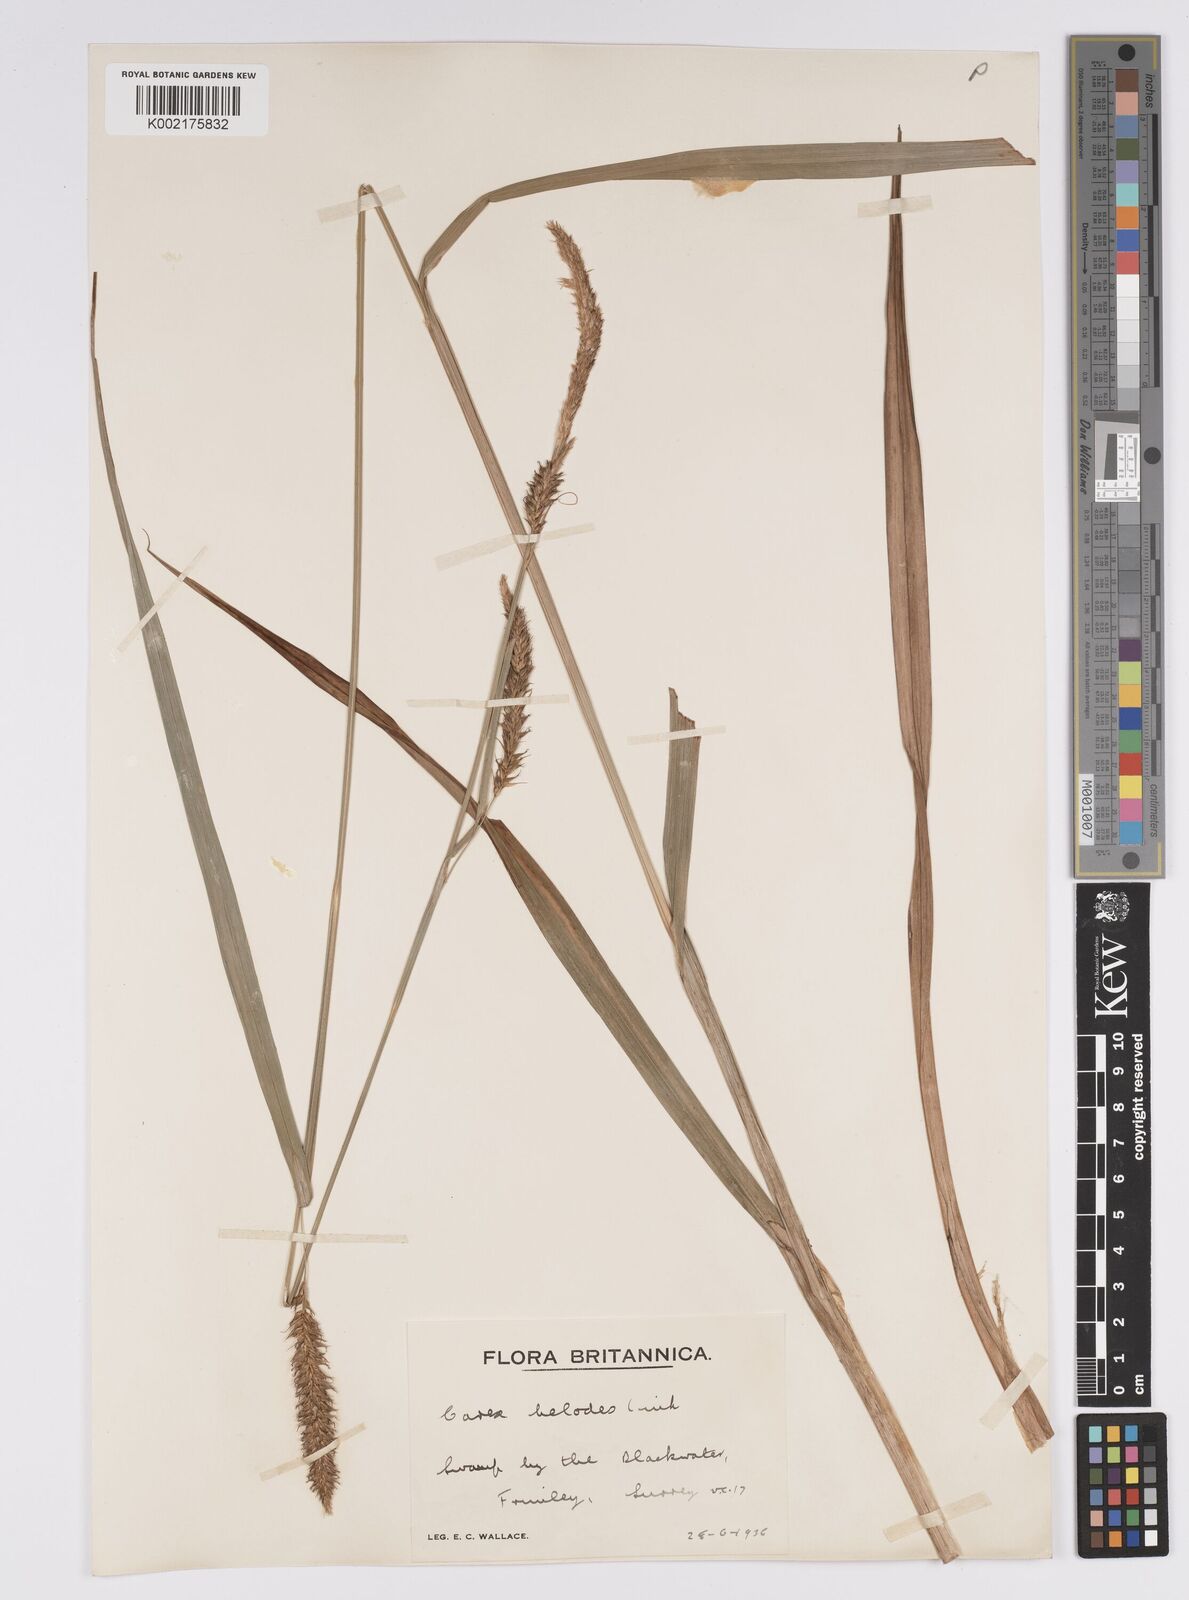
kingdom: Plantae
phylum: Tracheophyta
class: Liliopsida
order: Poales
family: Cyperaceae
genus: Carex
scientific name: Carex laevigata
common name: Smooth-stalked sedge
